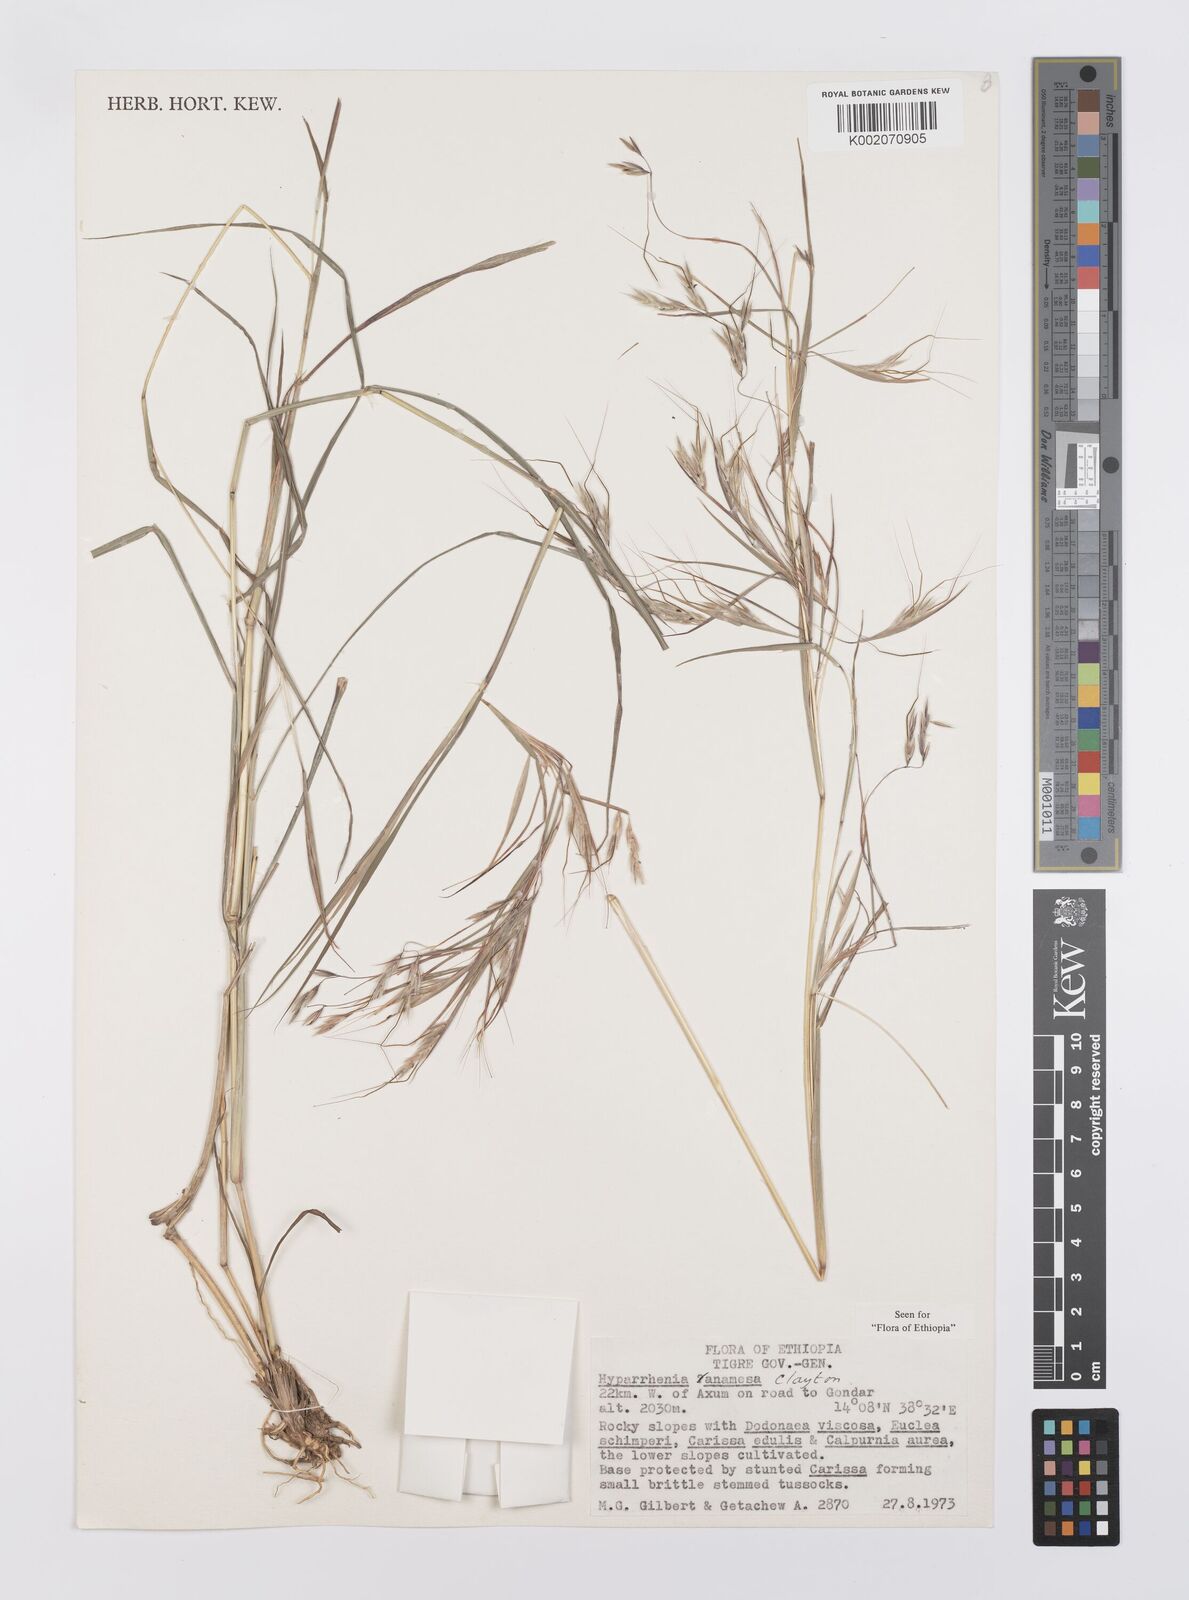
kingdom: Plantae
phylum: Tracheophyta
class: Liliopsida
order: Poales
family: Poaceae
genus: Hyparrhenia
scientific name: Hyparrhenia anamesa
